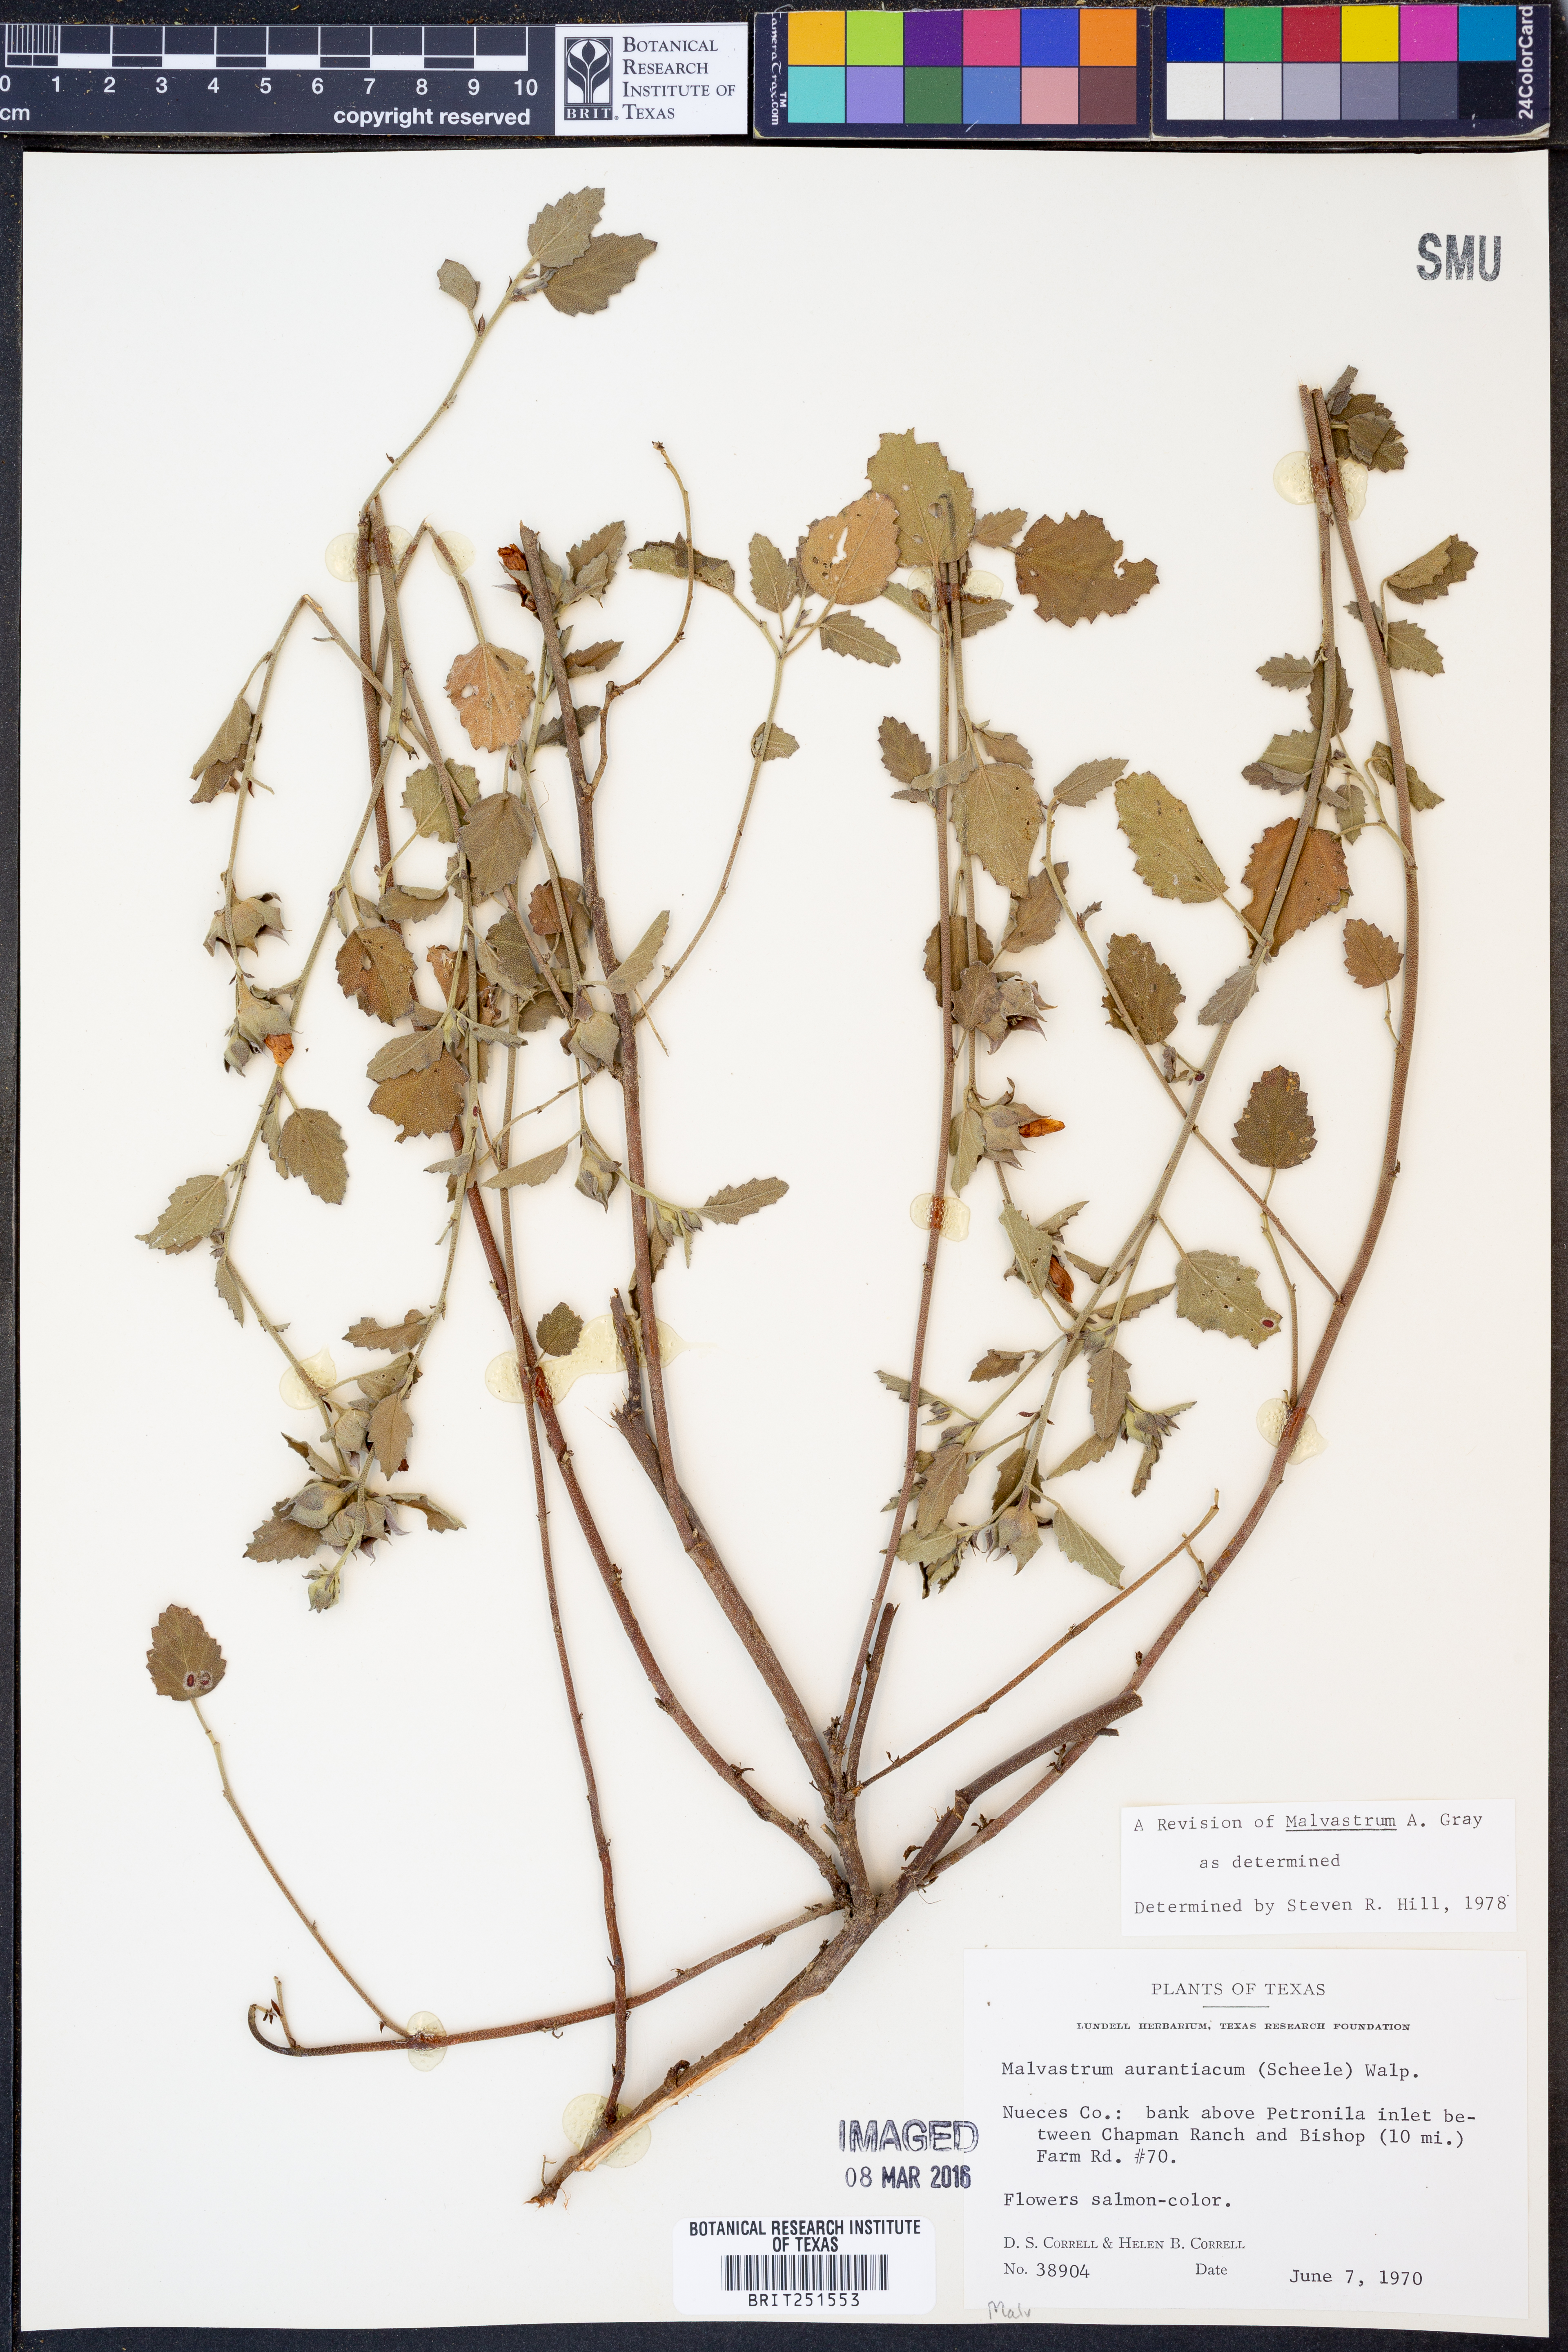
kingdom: Plantae
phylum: Tracheophyta
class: Magnoliopsida
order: Malvales
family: Malvaceae
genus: Malvastrum
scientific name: Malvastrum aurantiacum
